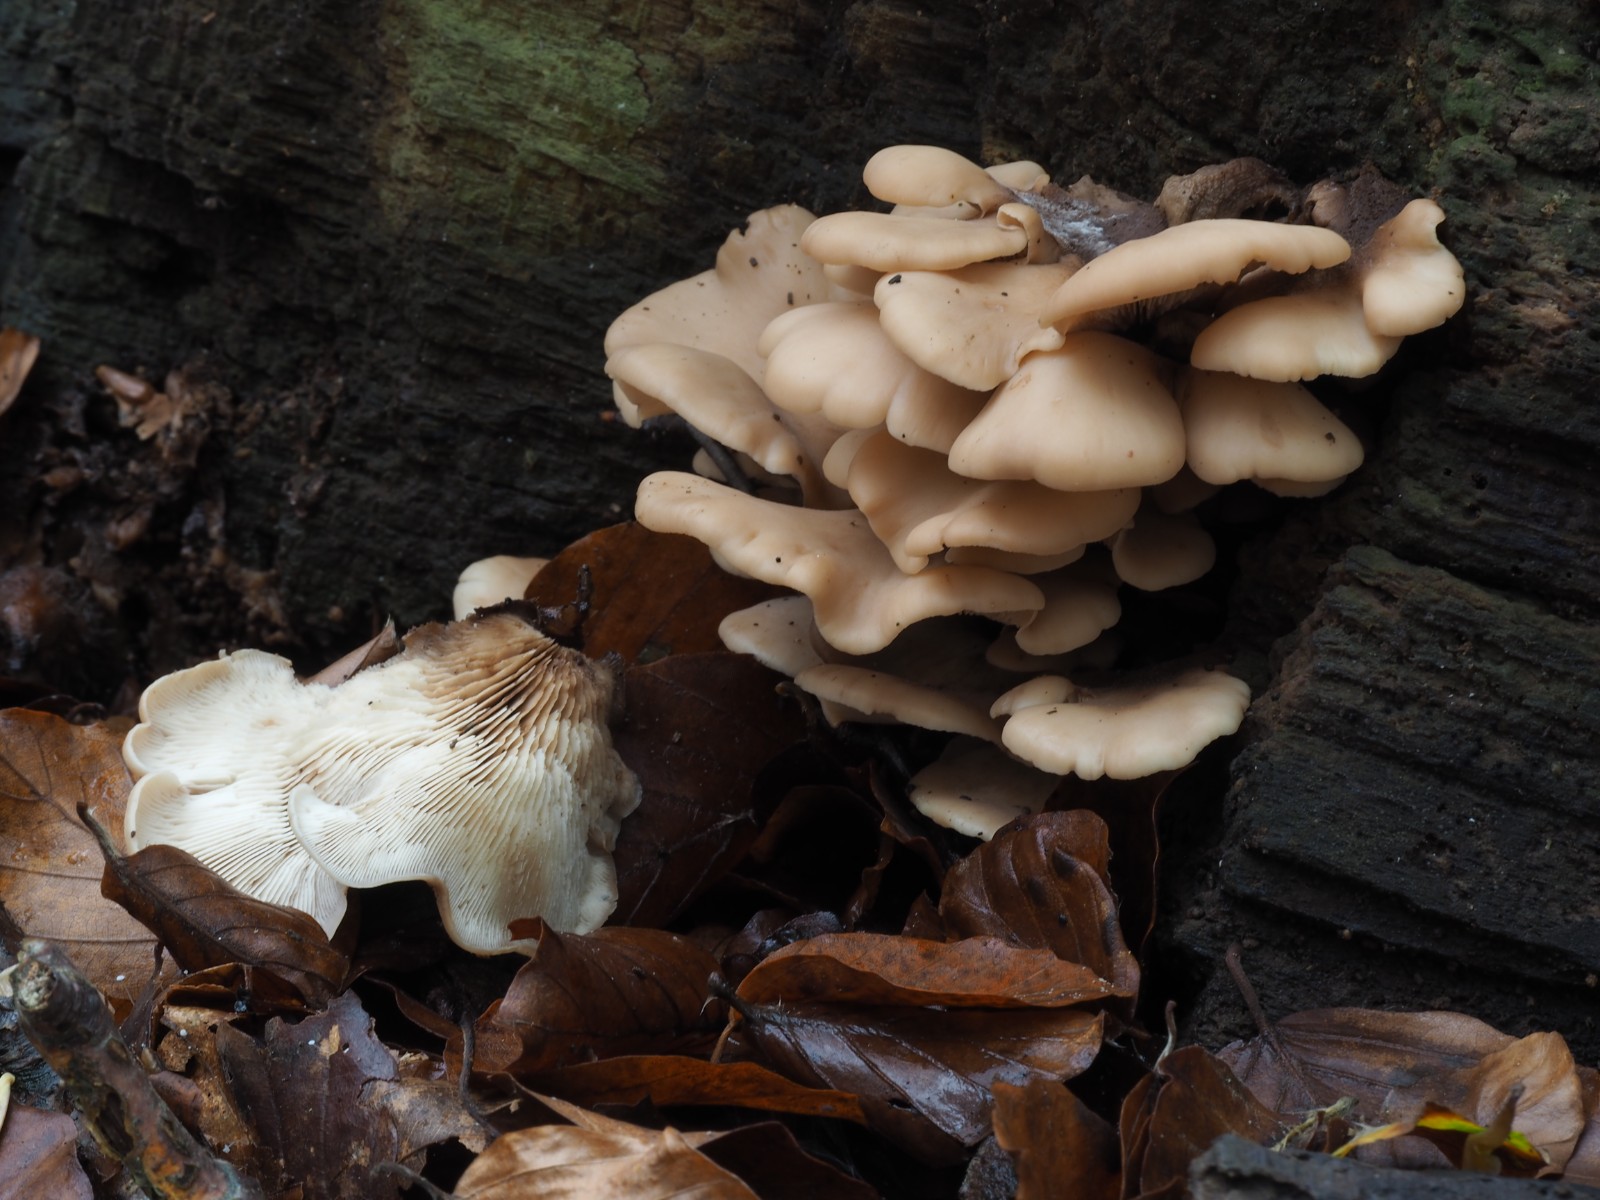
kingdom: Fungi
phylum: Basidiomycota
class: Agaricomycetes
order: Russulales
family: Auriscalpiaceae
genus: Lentinellus
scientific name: Lentinellus ursinus
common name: børstehåret savbladhat
